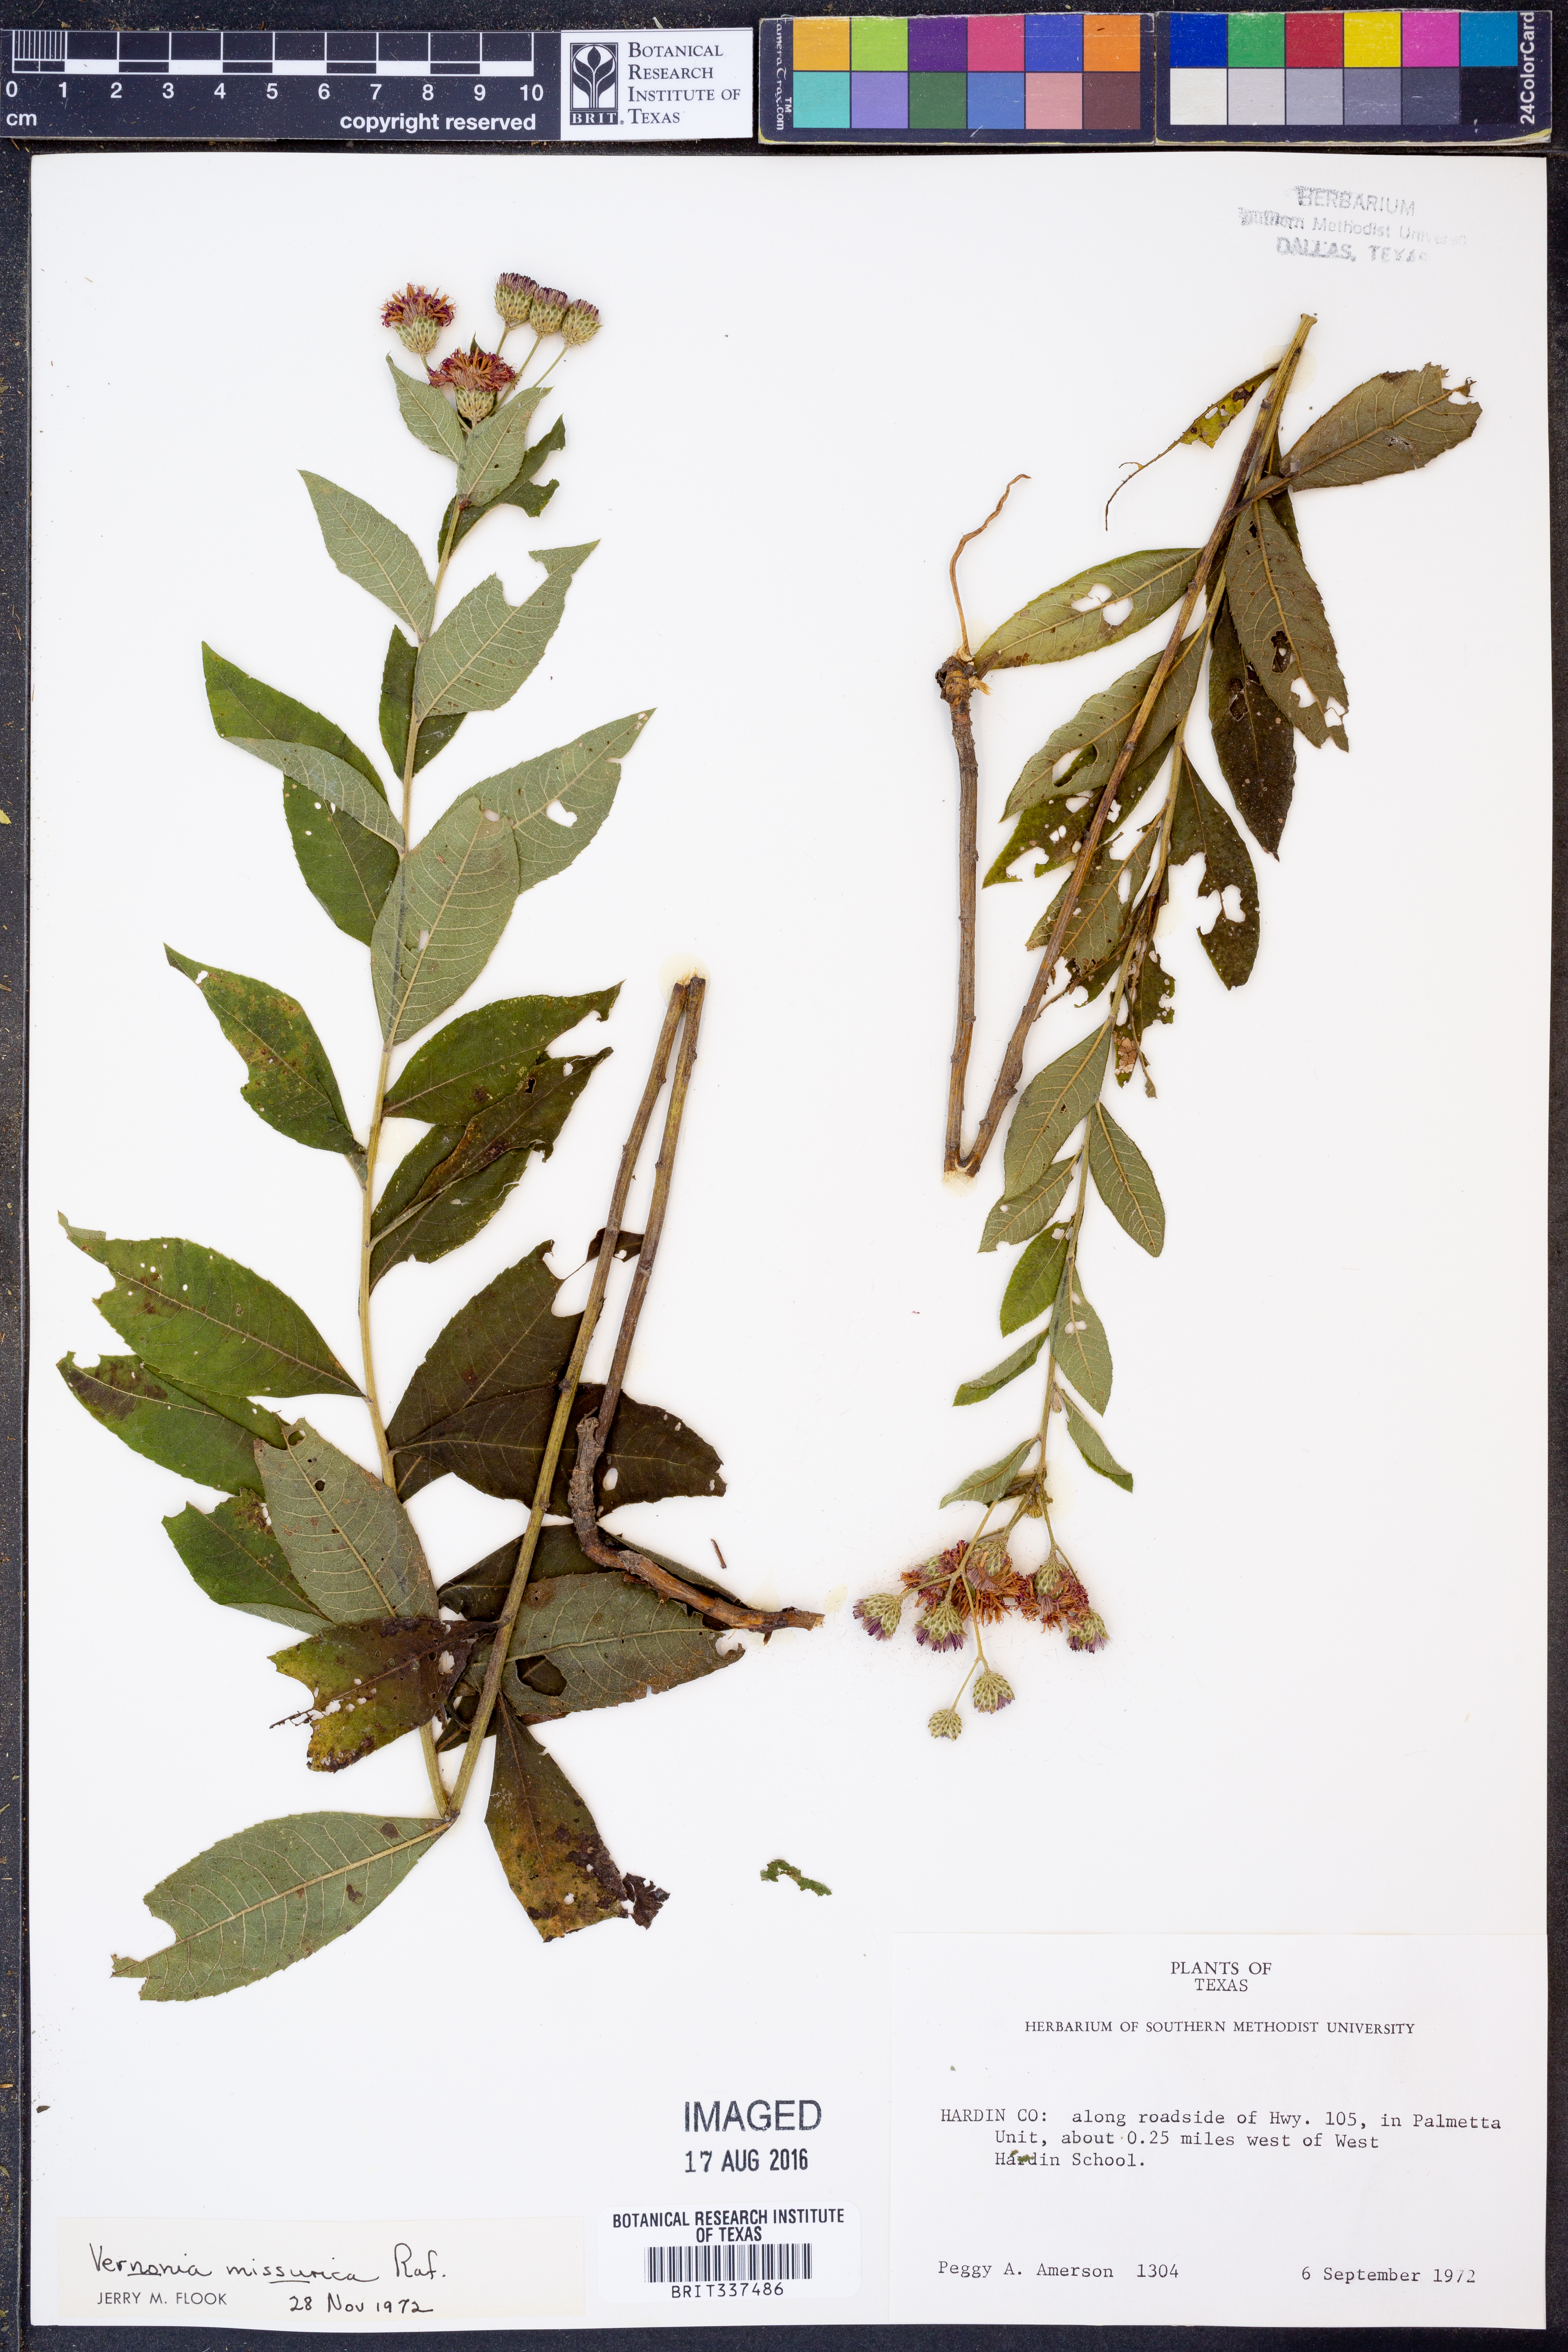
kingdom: Plantae
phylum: Tracheophyta
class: Magnoliopsida
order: Asterales
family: Asteraceae
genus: Vernonia
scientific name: Vernonia missurica
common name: Missouri ironweed
